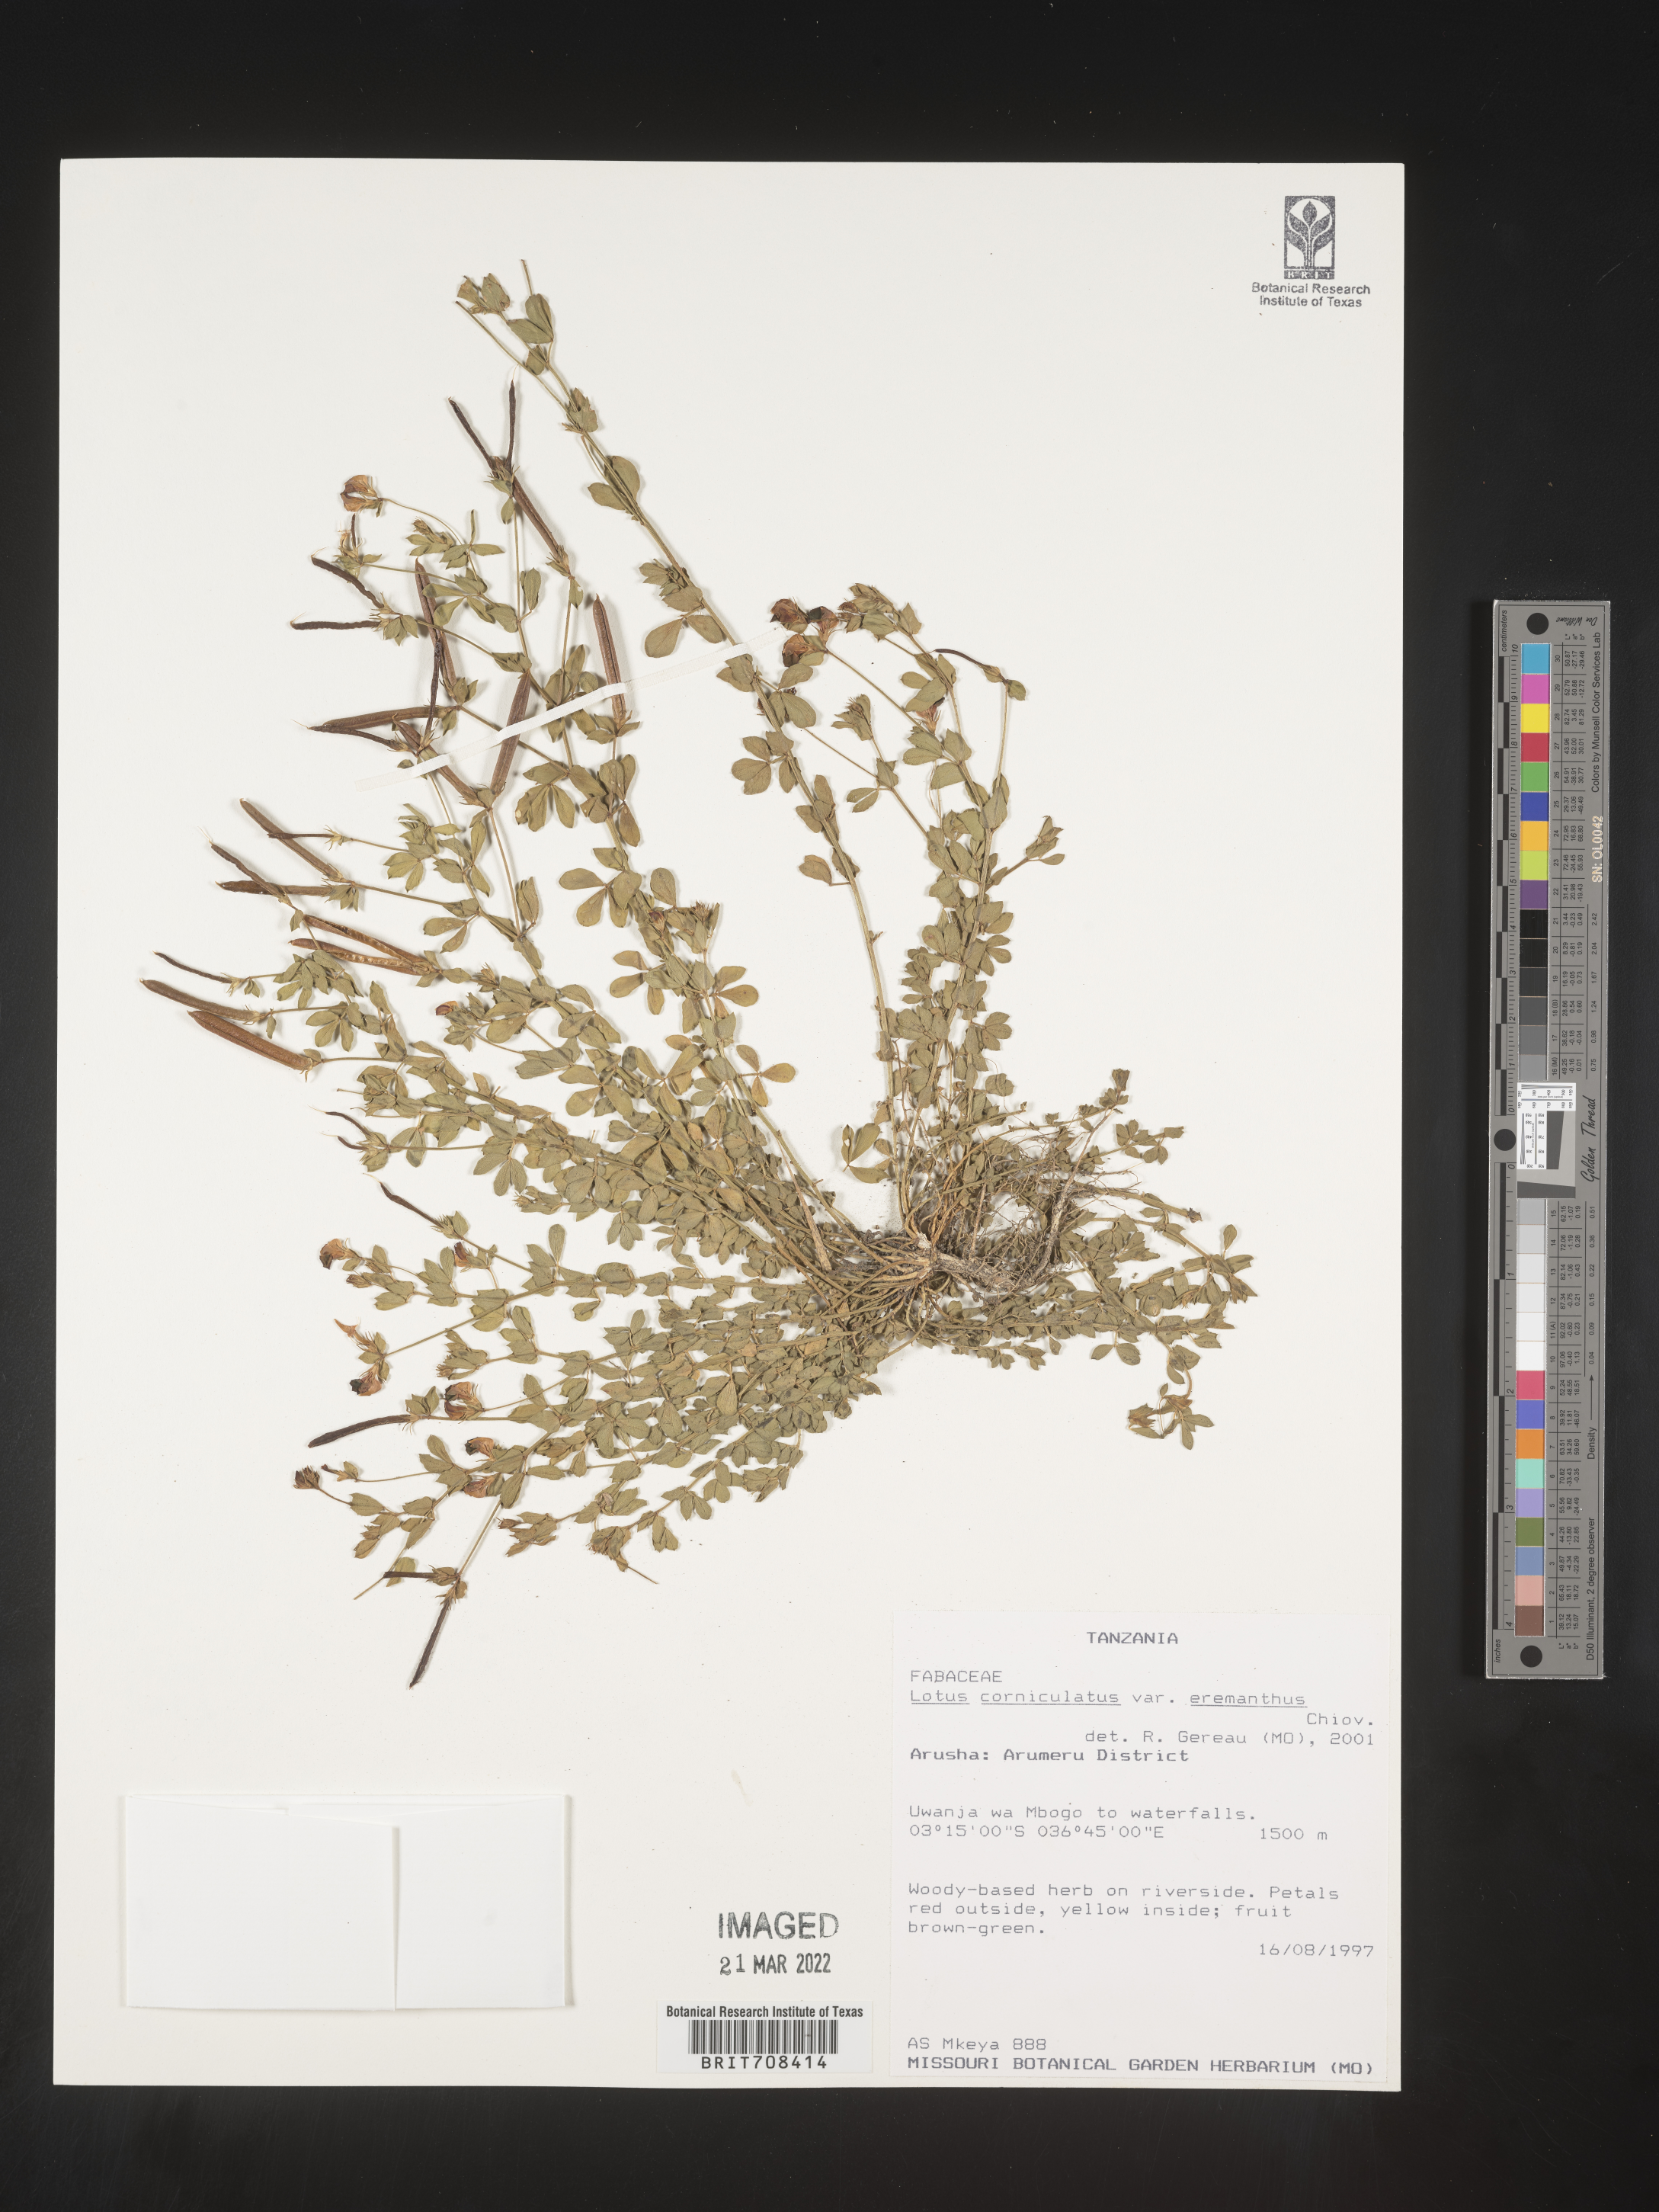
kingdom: Plantae
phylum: Tracheophyta
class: Magnoliopsida
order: Fabales
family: Fabaceae
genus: Lotus
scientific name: Lotus
